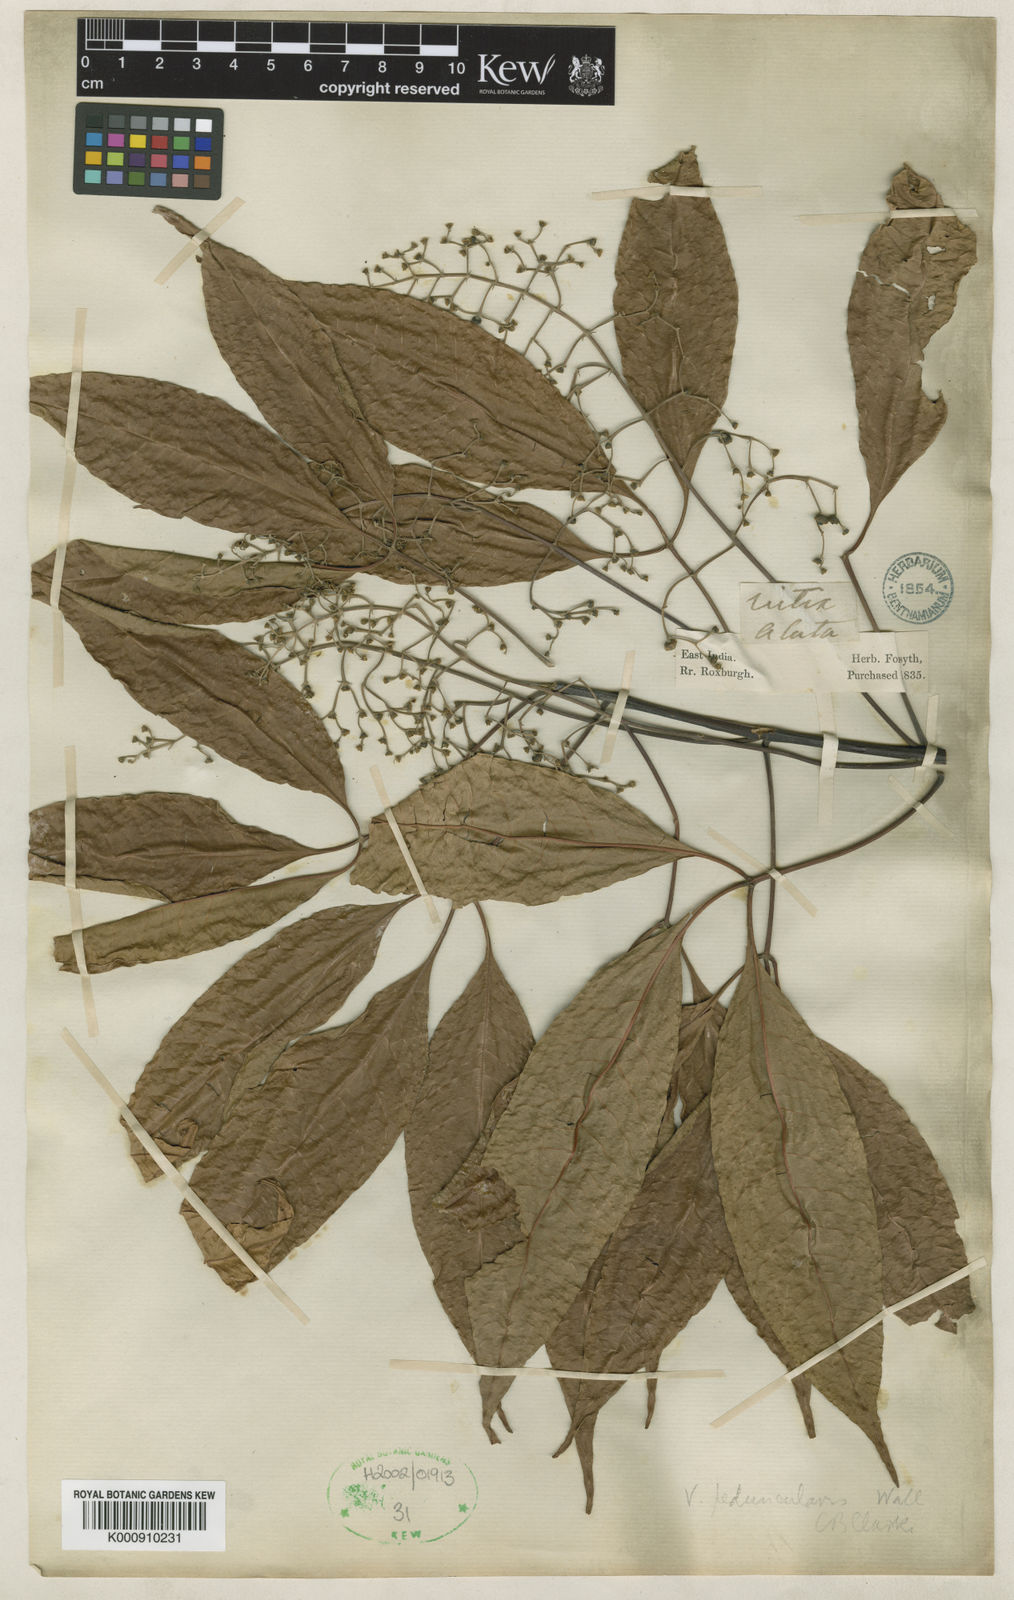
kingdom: Plantae
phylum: Tracheophyta
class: Magnoliopsida
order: Lamiales
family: Lamiaceae
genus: Vitex
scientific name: Vitex
